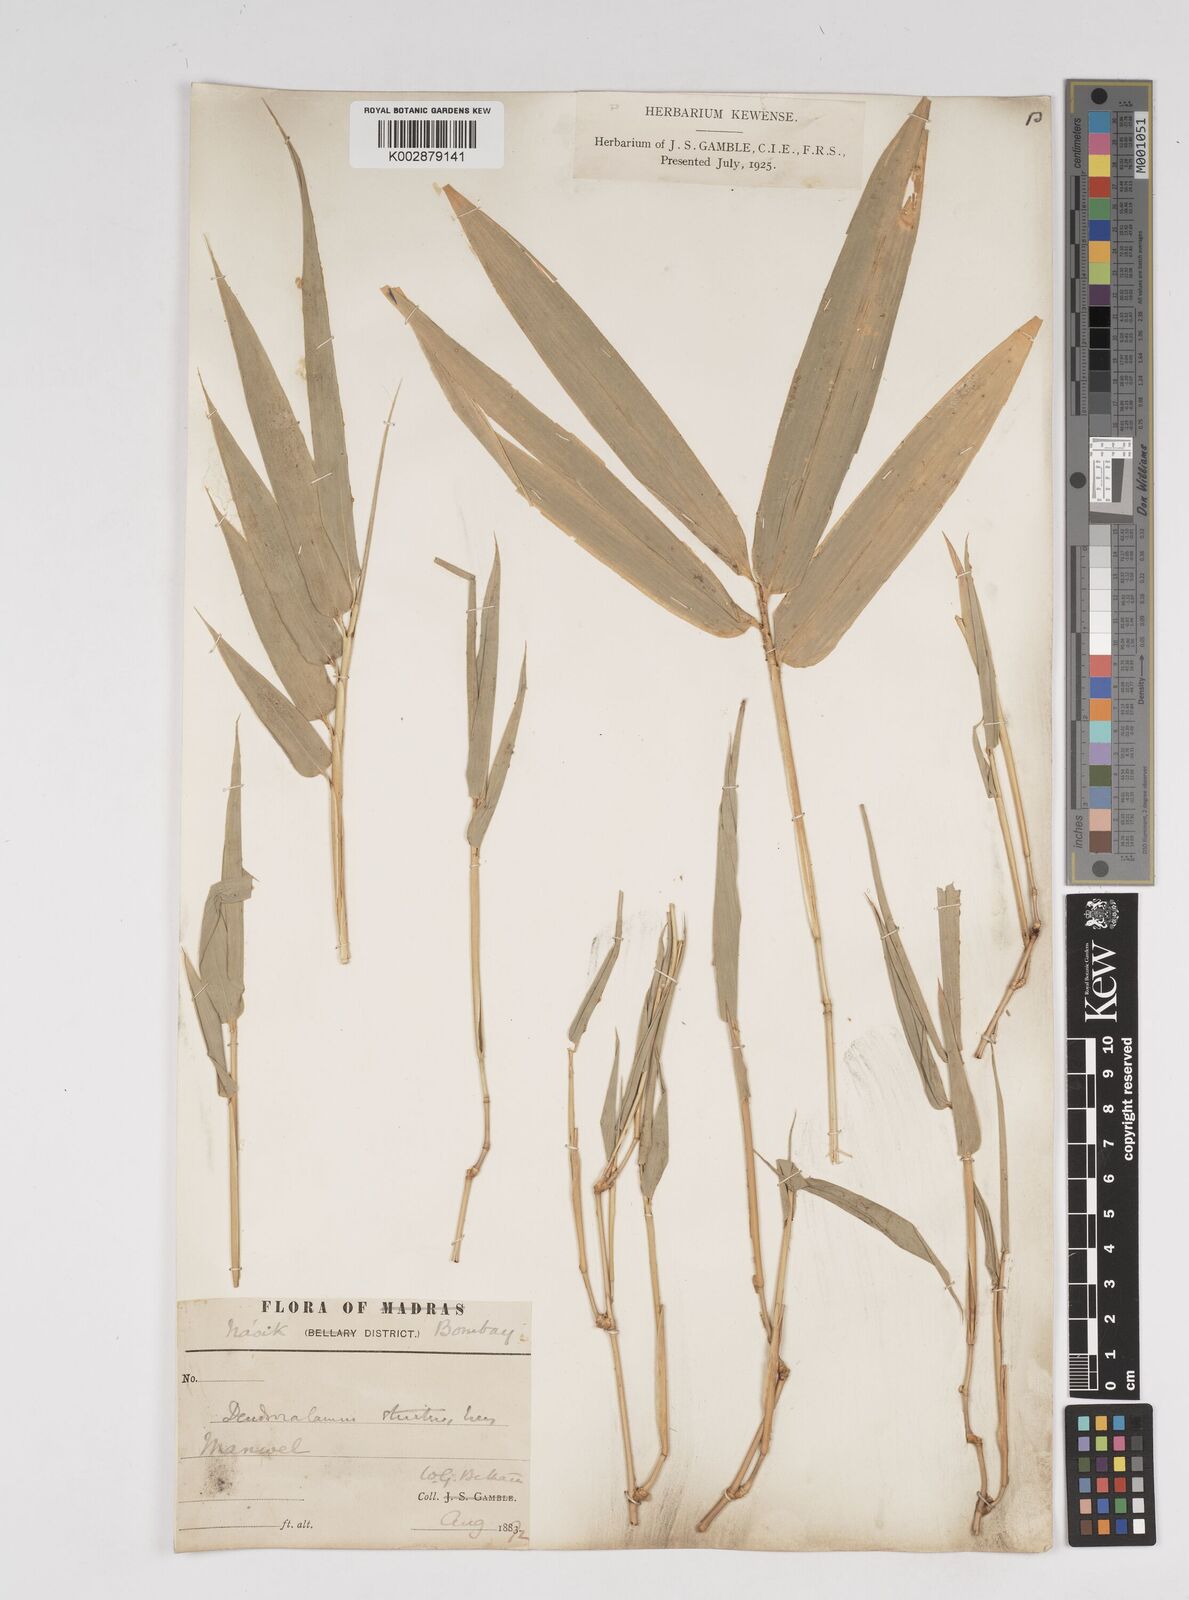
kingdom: Plantae
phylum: Tracheophyta
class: Liliopsida
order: Poales
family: Poaceae
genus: Dendrocalamus
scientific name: Dendrocalamus strictus
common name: Male bamboo
